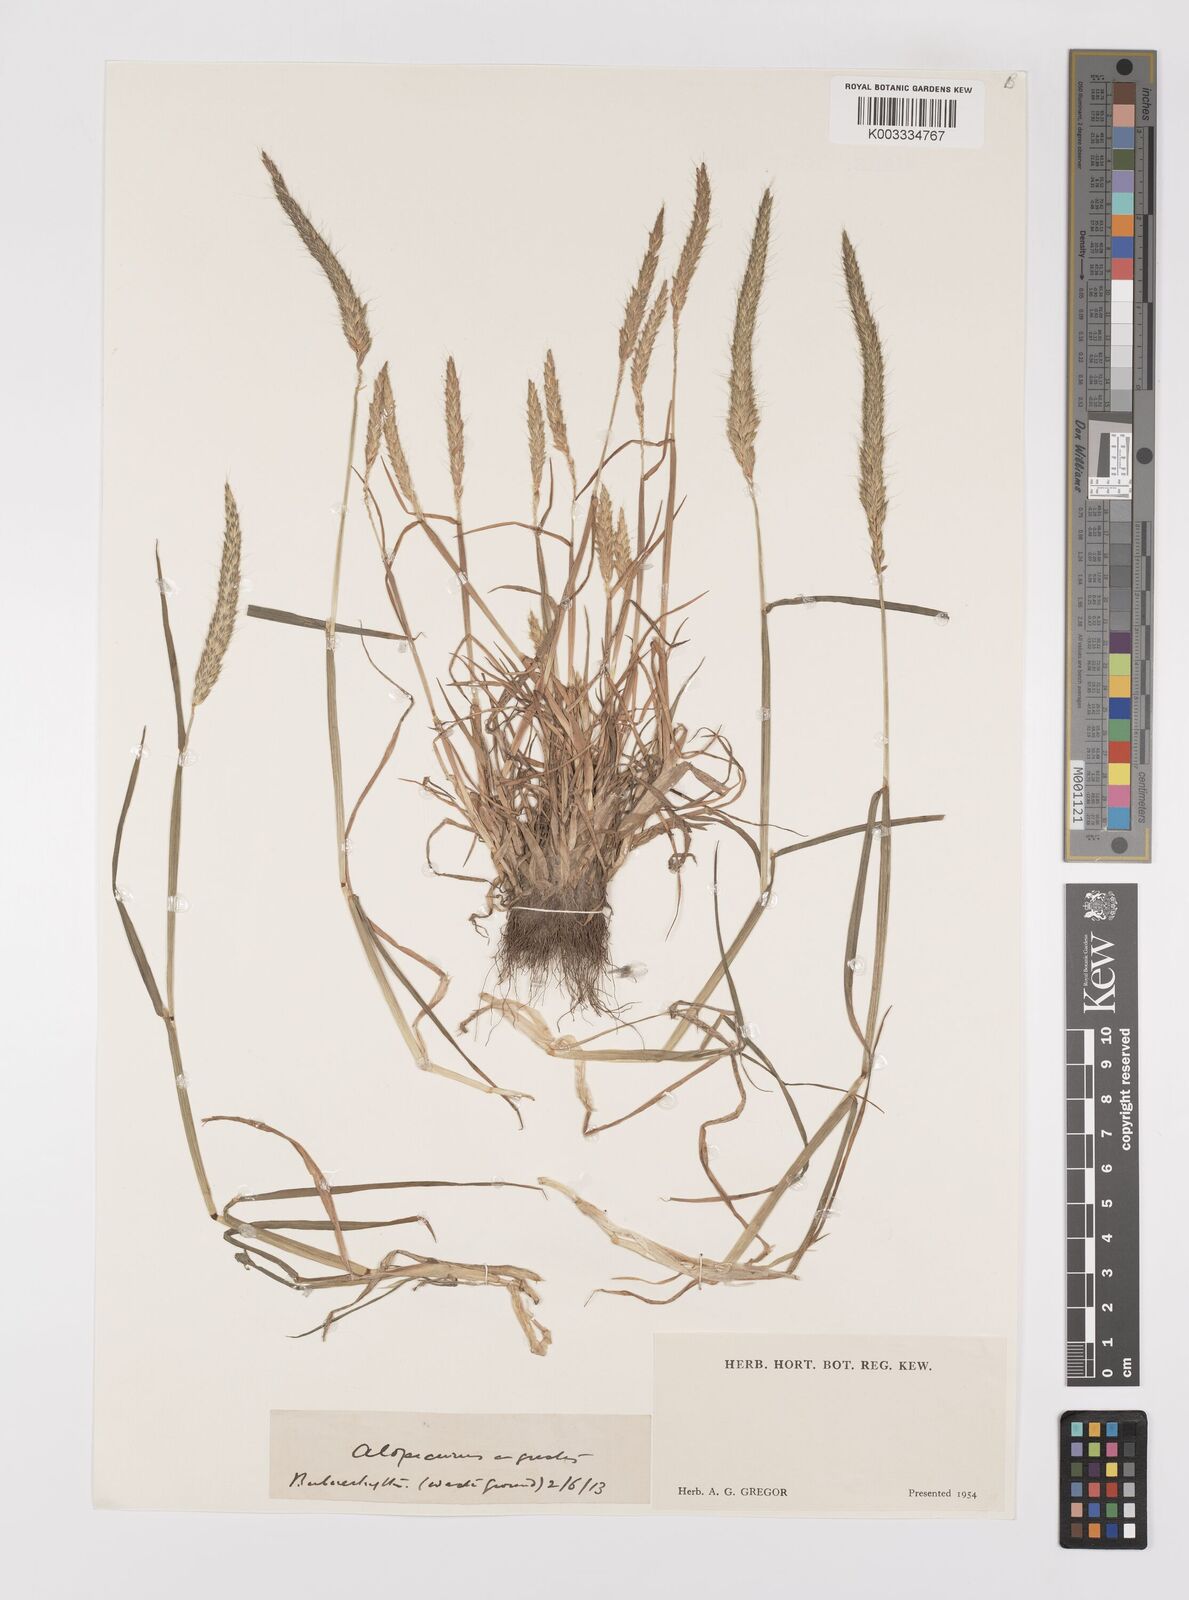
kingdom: Plantae
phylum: Tracheophyta
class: Liliopsida
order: Poales
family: Poaceae
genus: Alopecurus
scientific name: Alopecurus myosuroides
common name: Black-grass
